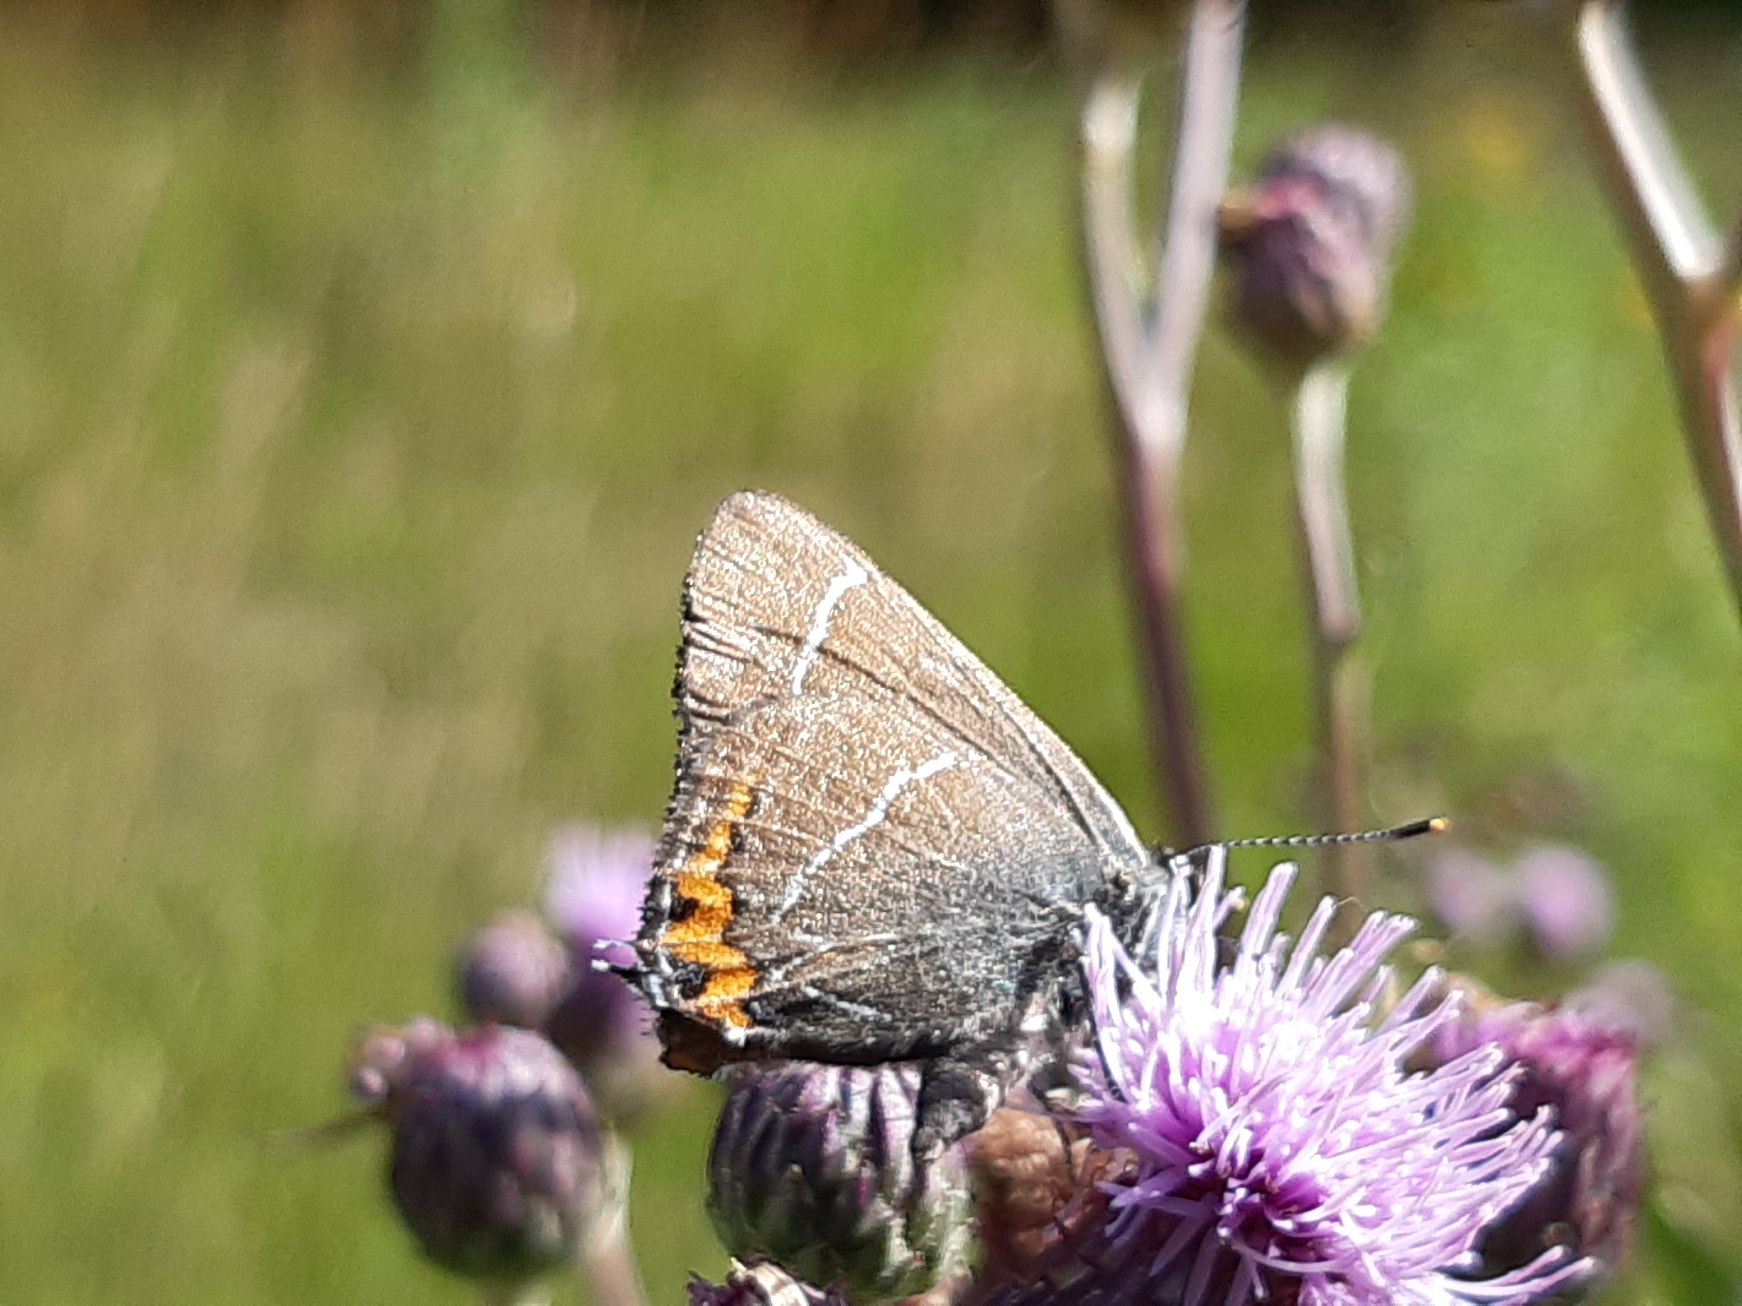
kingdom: Animalia
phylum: Arthropoda
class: Insecta
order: Lepidoptera
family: Lycaenidae
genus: Satyrium
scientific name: Satyrium w-album
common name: Det hvide W
